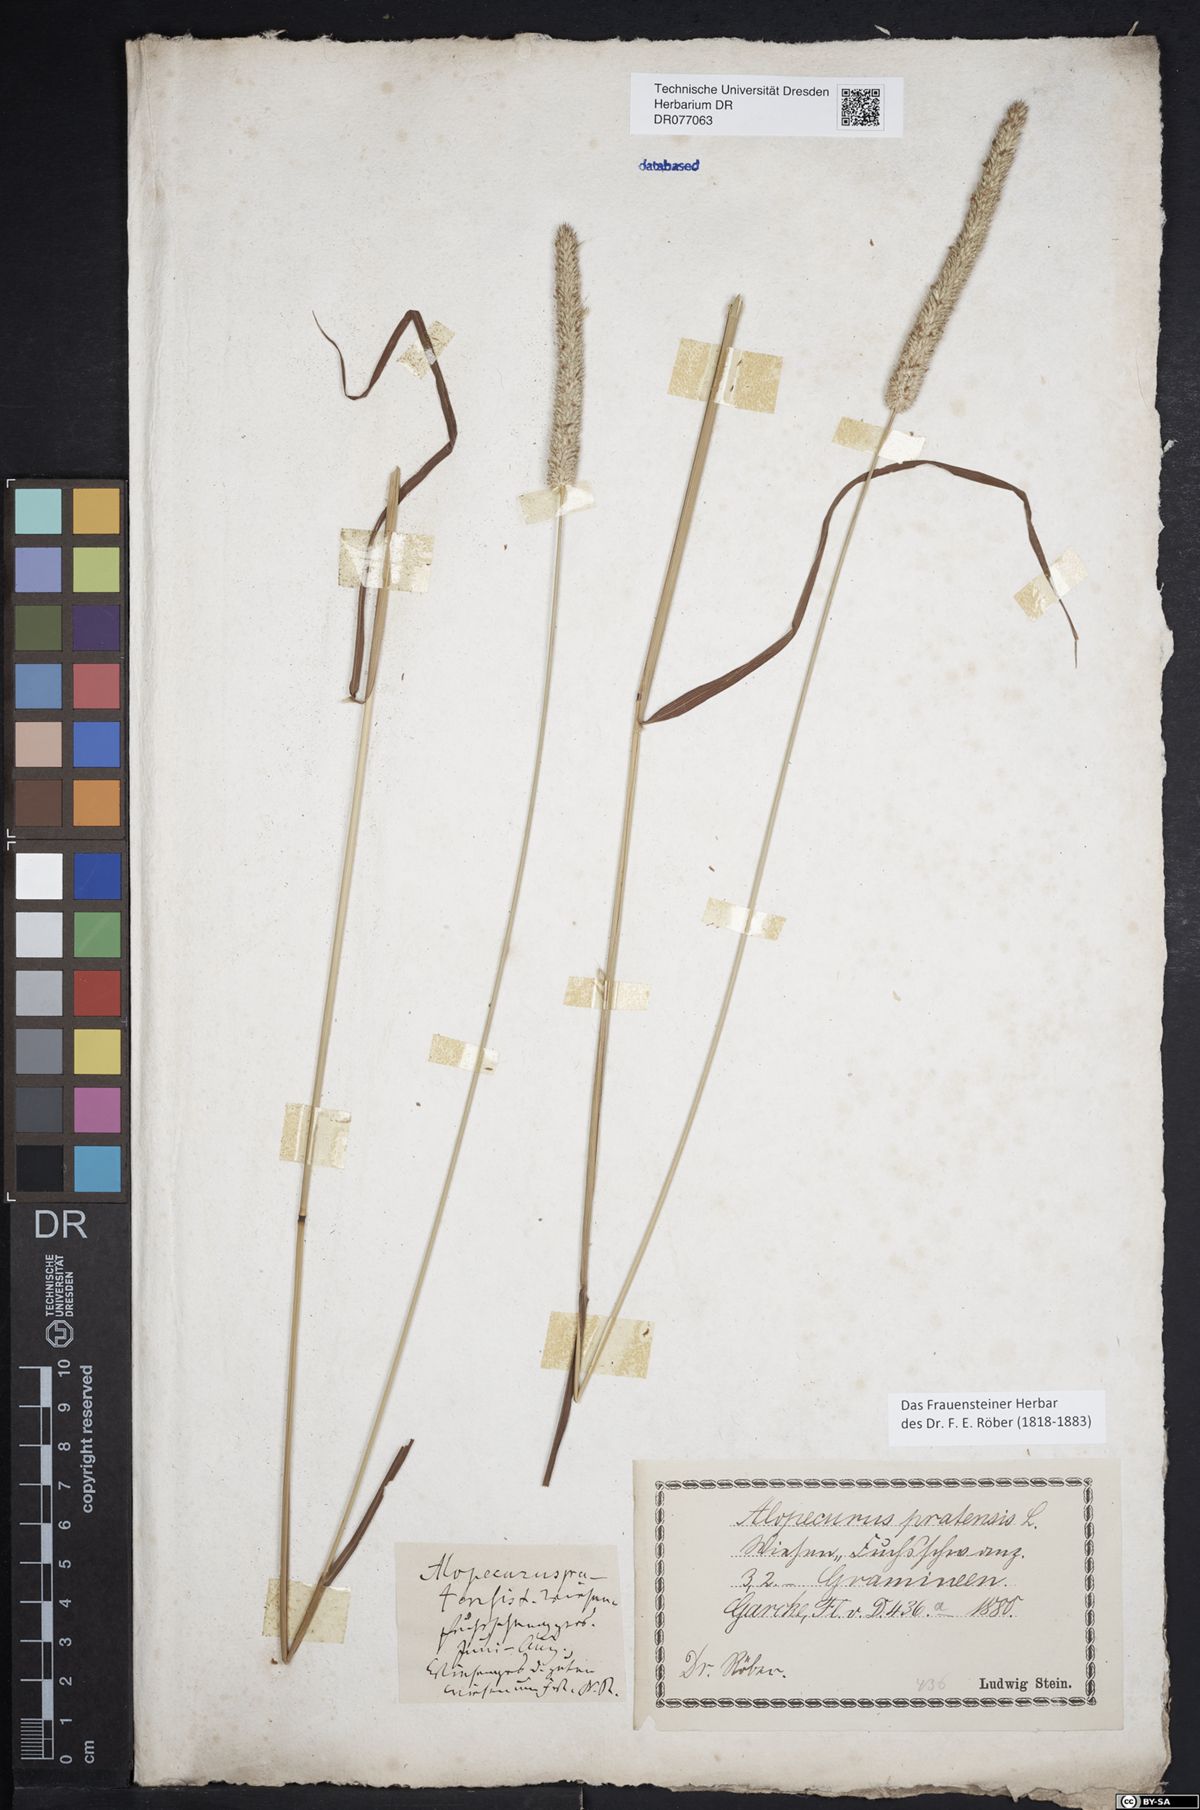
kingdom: Plantae
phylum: Tracheophyta
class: Liliopsida
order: Poales
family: Poaceae
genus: Phleum
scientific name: Phleum pratense
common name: Timothy grass
